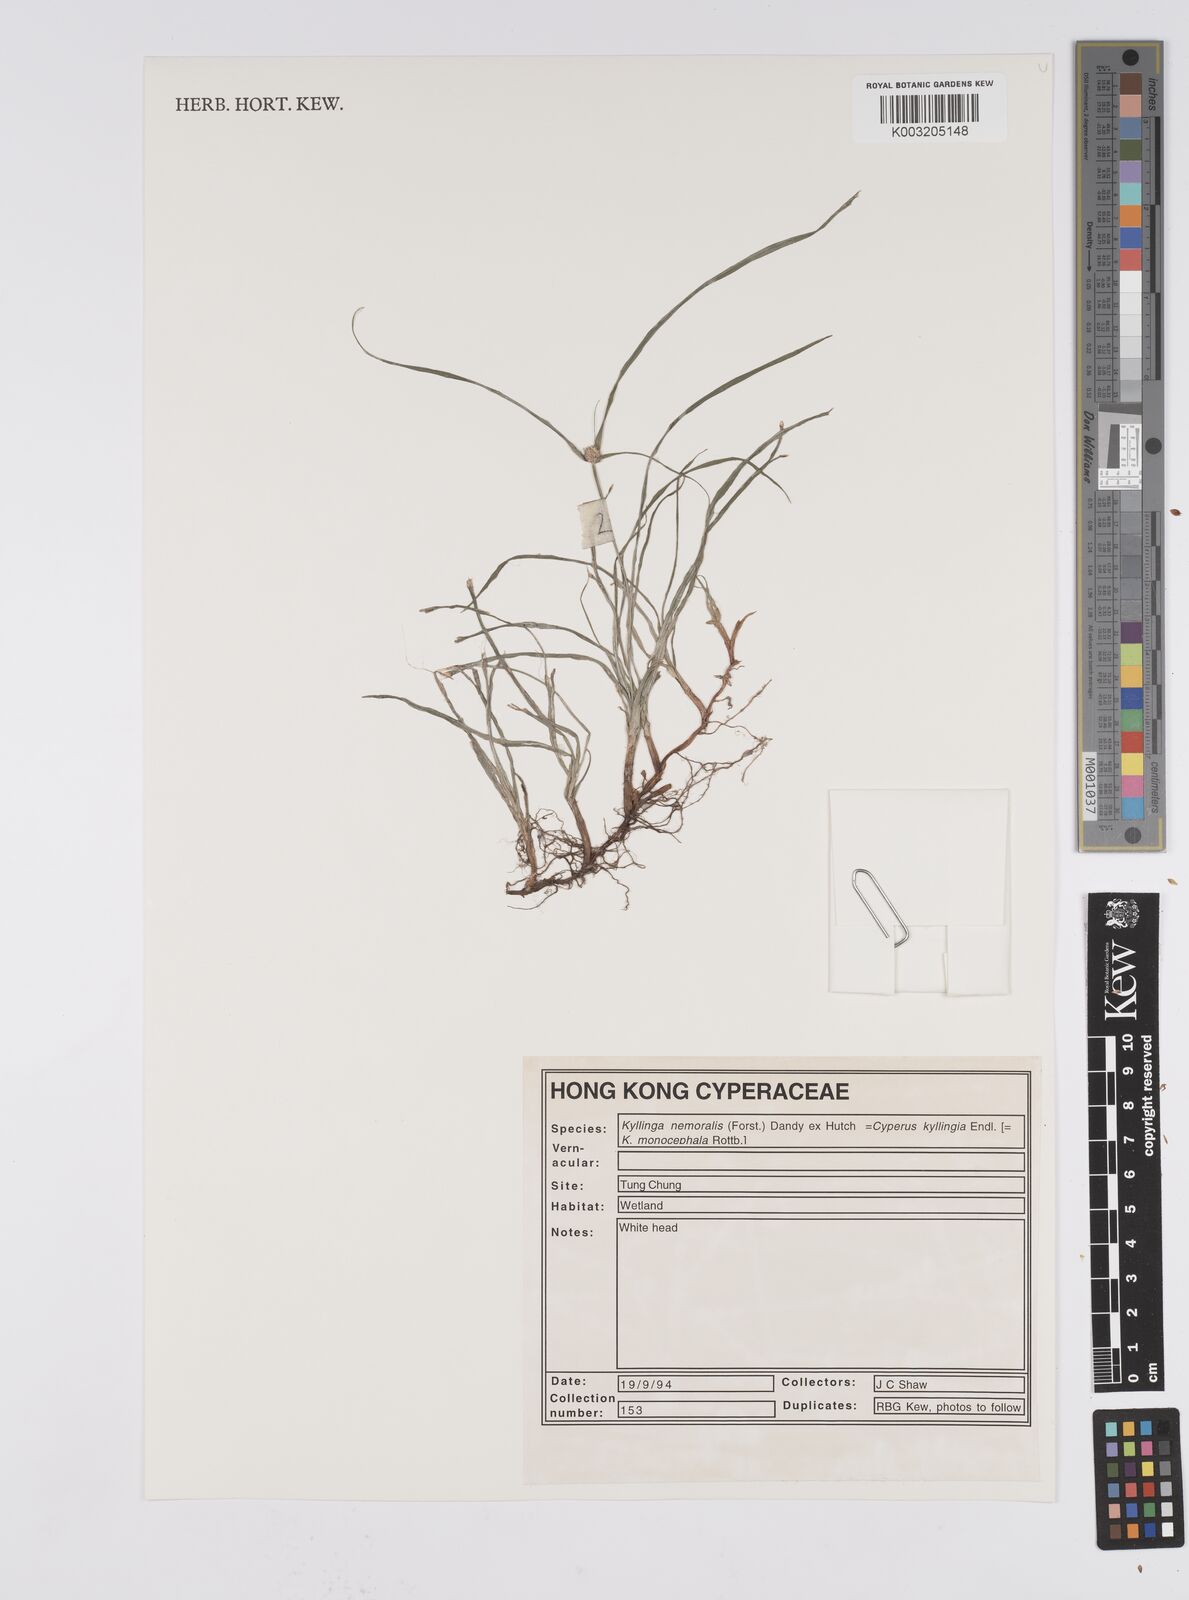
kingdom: Plantae
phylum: Tracheophyta
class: Liliopsida
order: Poales
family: Cyperaceae
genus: Cyperus
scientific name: Cyperus nemoralis
